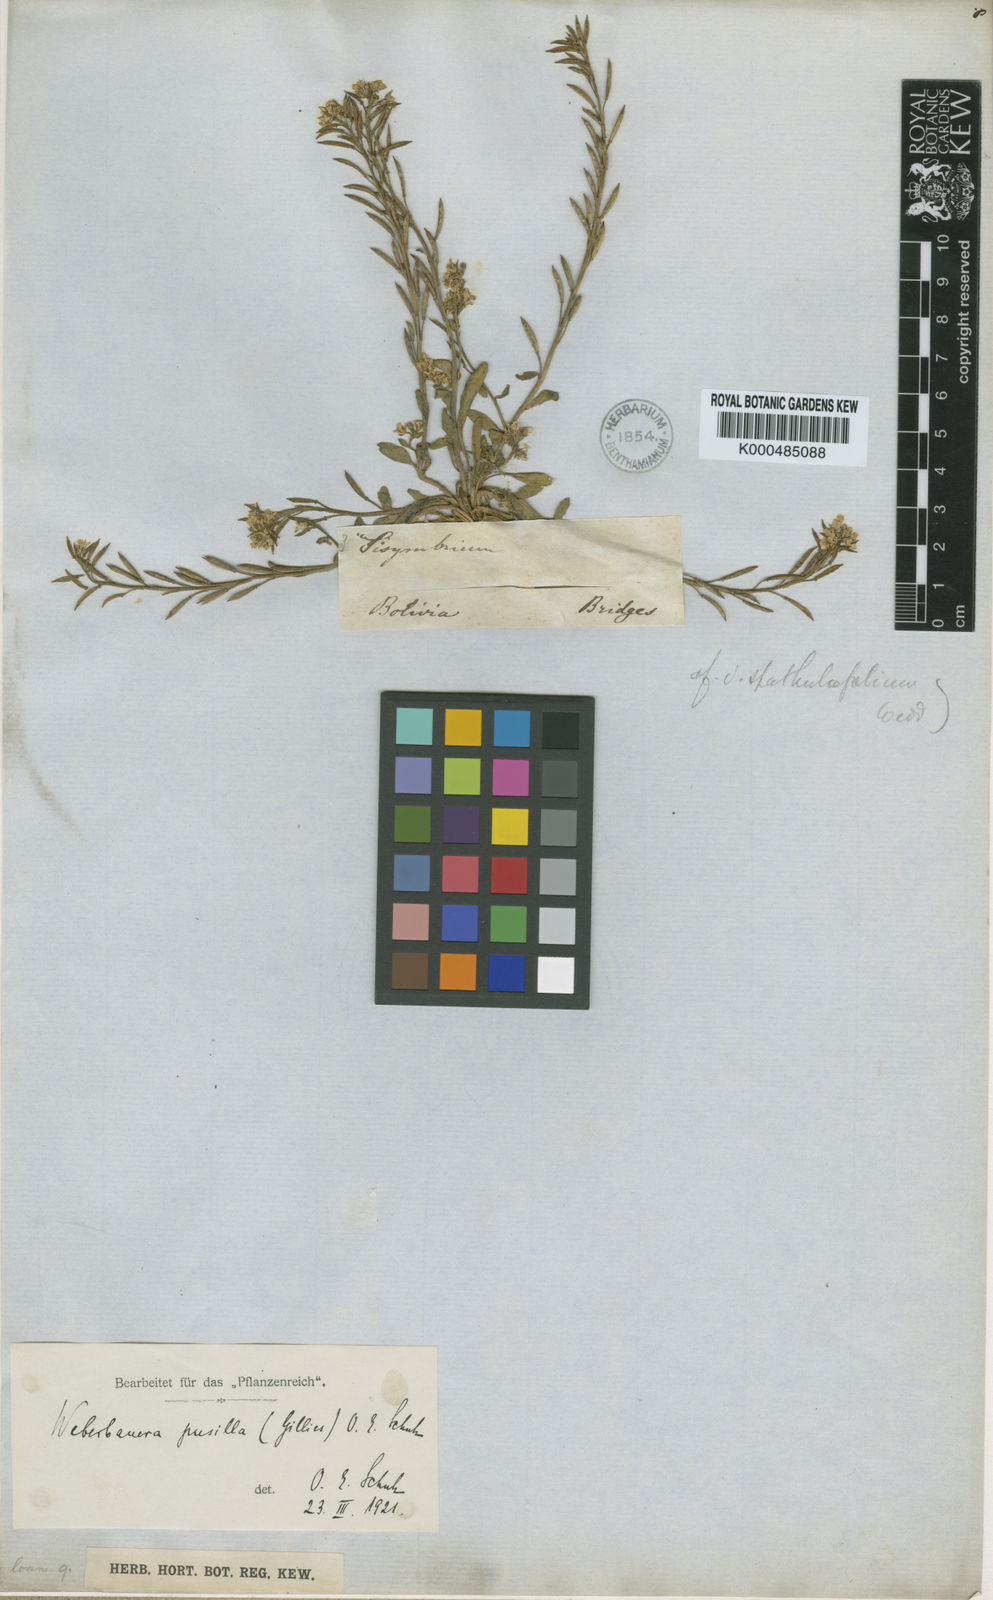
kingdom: Plantae
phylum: Tracheophyta
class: Magnoliopsida
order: Brassicales
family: Brassicaceae
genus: Weberbauera
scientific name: Weberbauera spathulifolia
